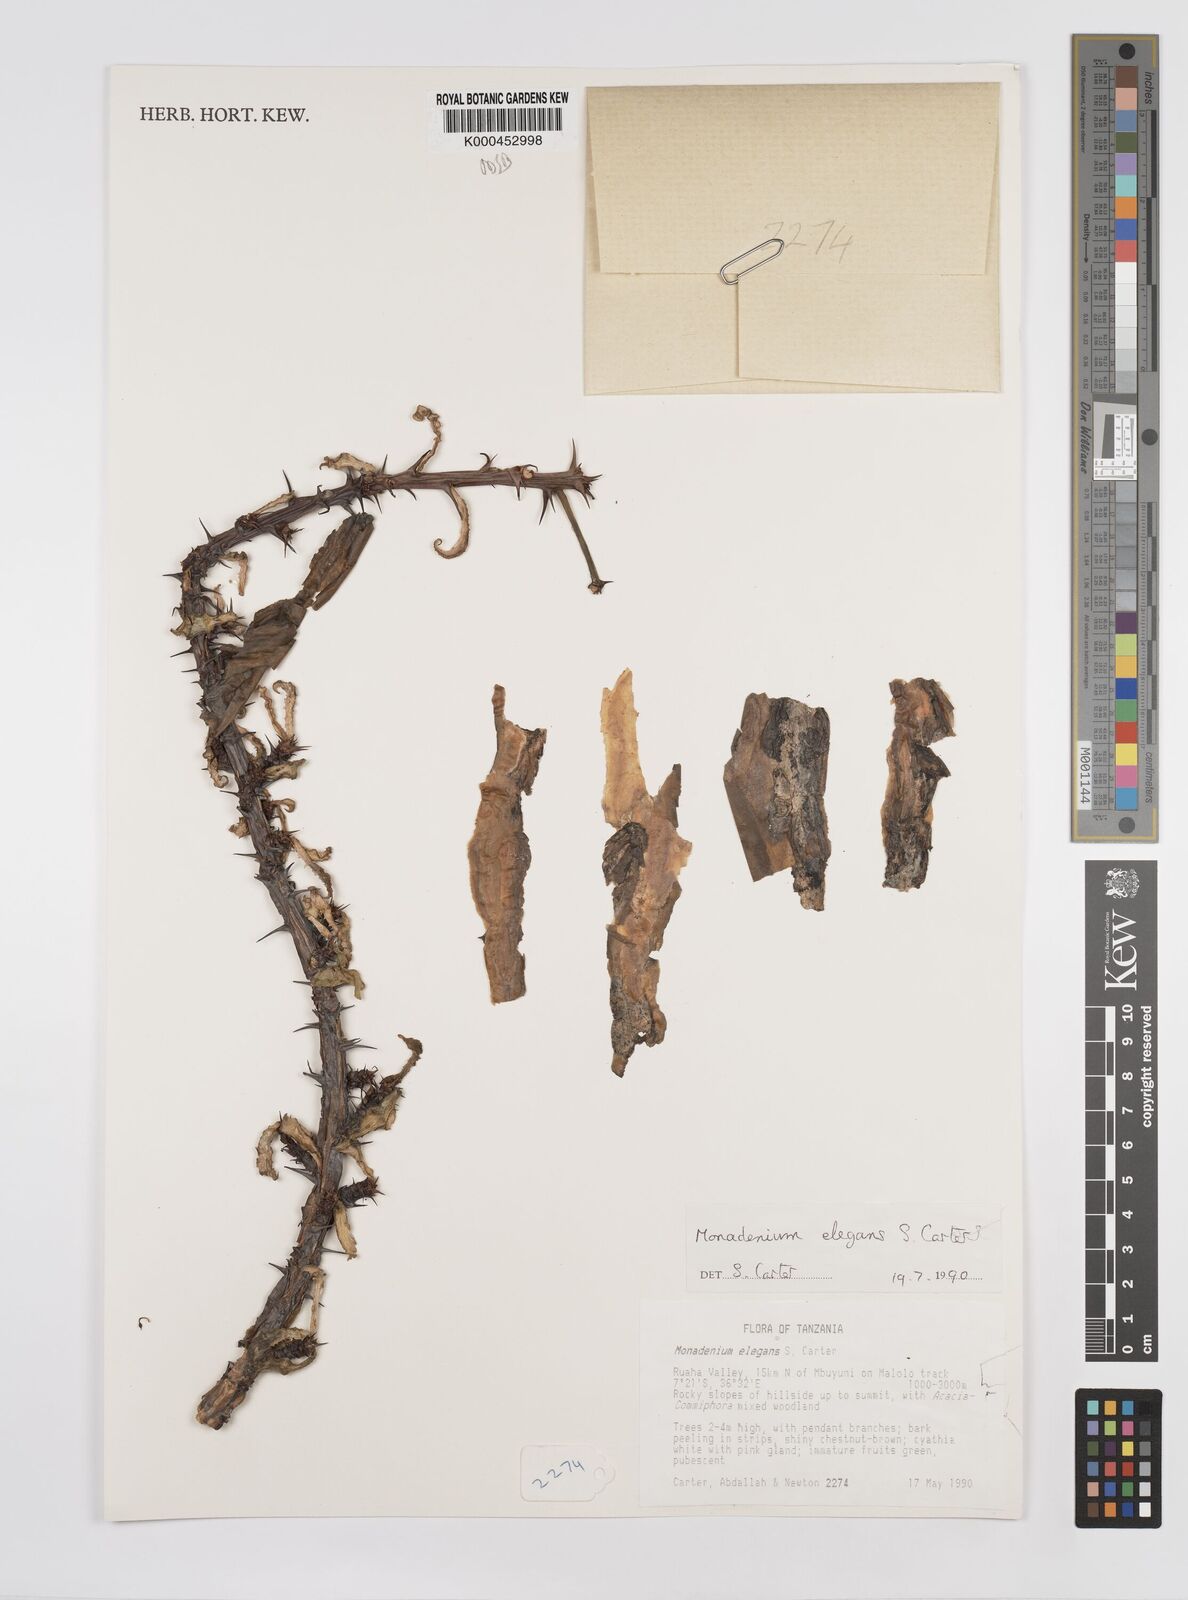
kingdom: Plantae
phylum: Tracheophyta
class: Magnoliopsida
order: Malpighiales
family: Euphorbiaceae
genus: Euphorbia
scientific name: Euphorbia biselegans
